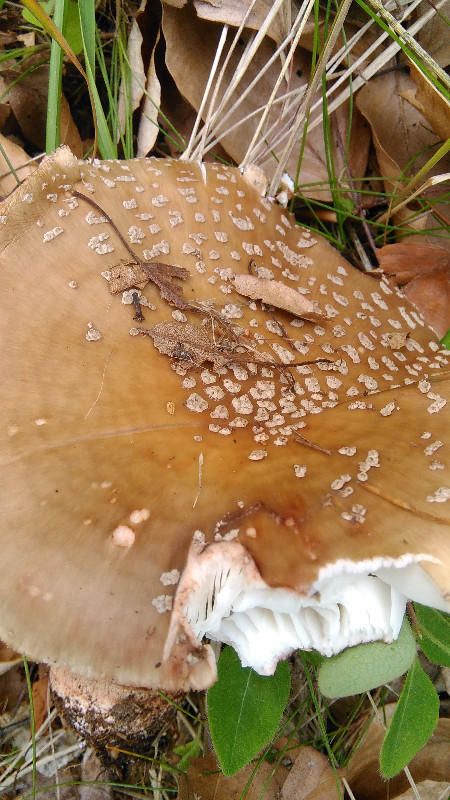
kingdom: Fungi
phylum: Basidiomycota
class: Agaricomycetes
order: Agaricales
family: Amanitaceae
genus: Amanita
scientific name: Amanita rubescens
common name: rødmende fluesvamp
